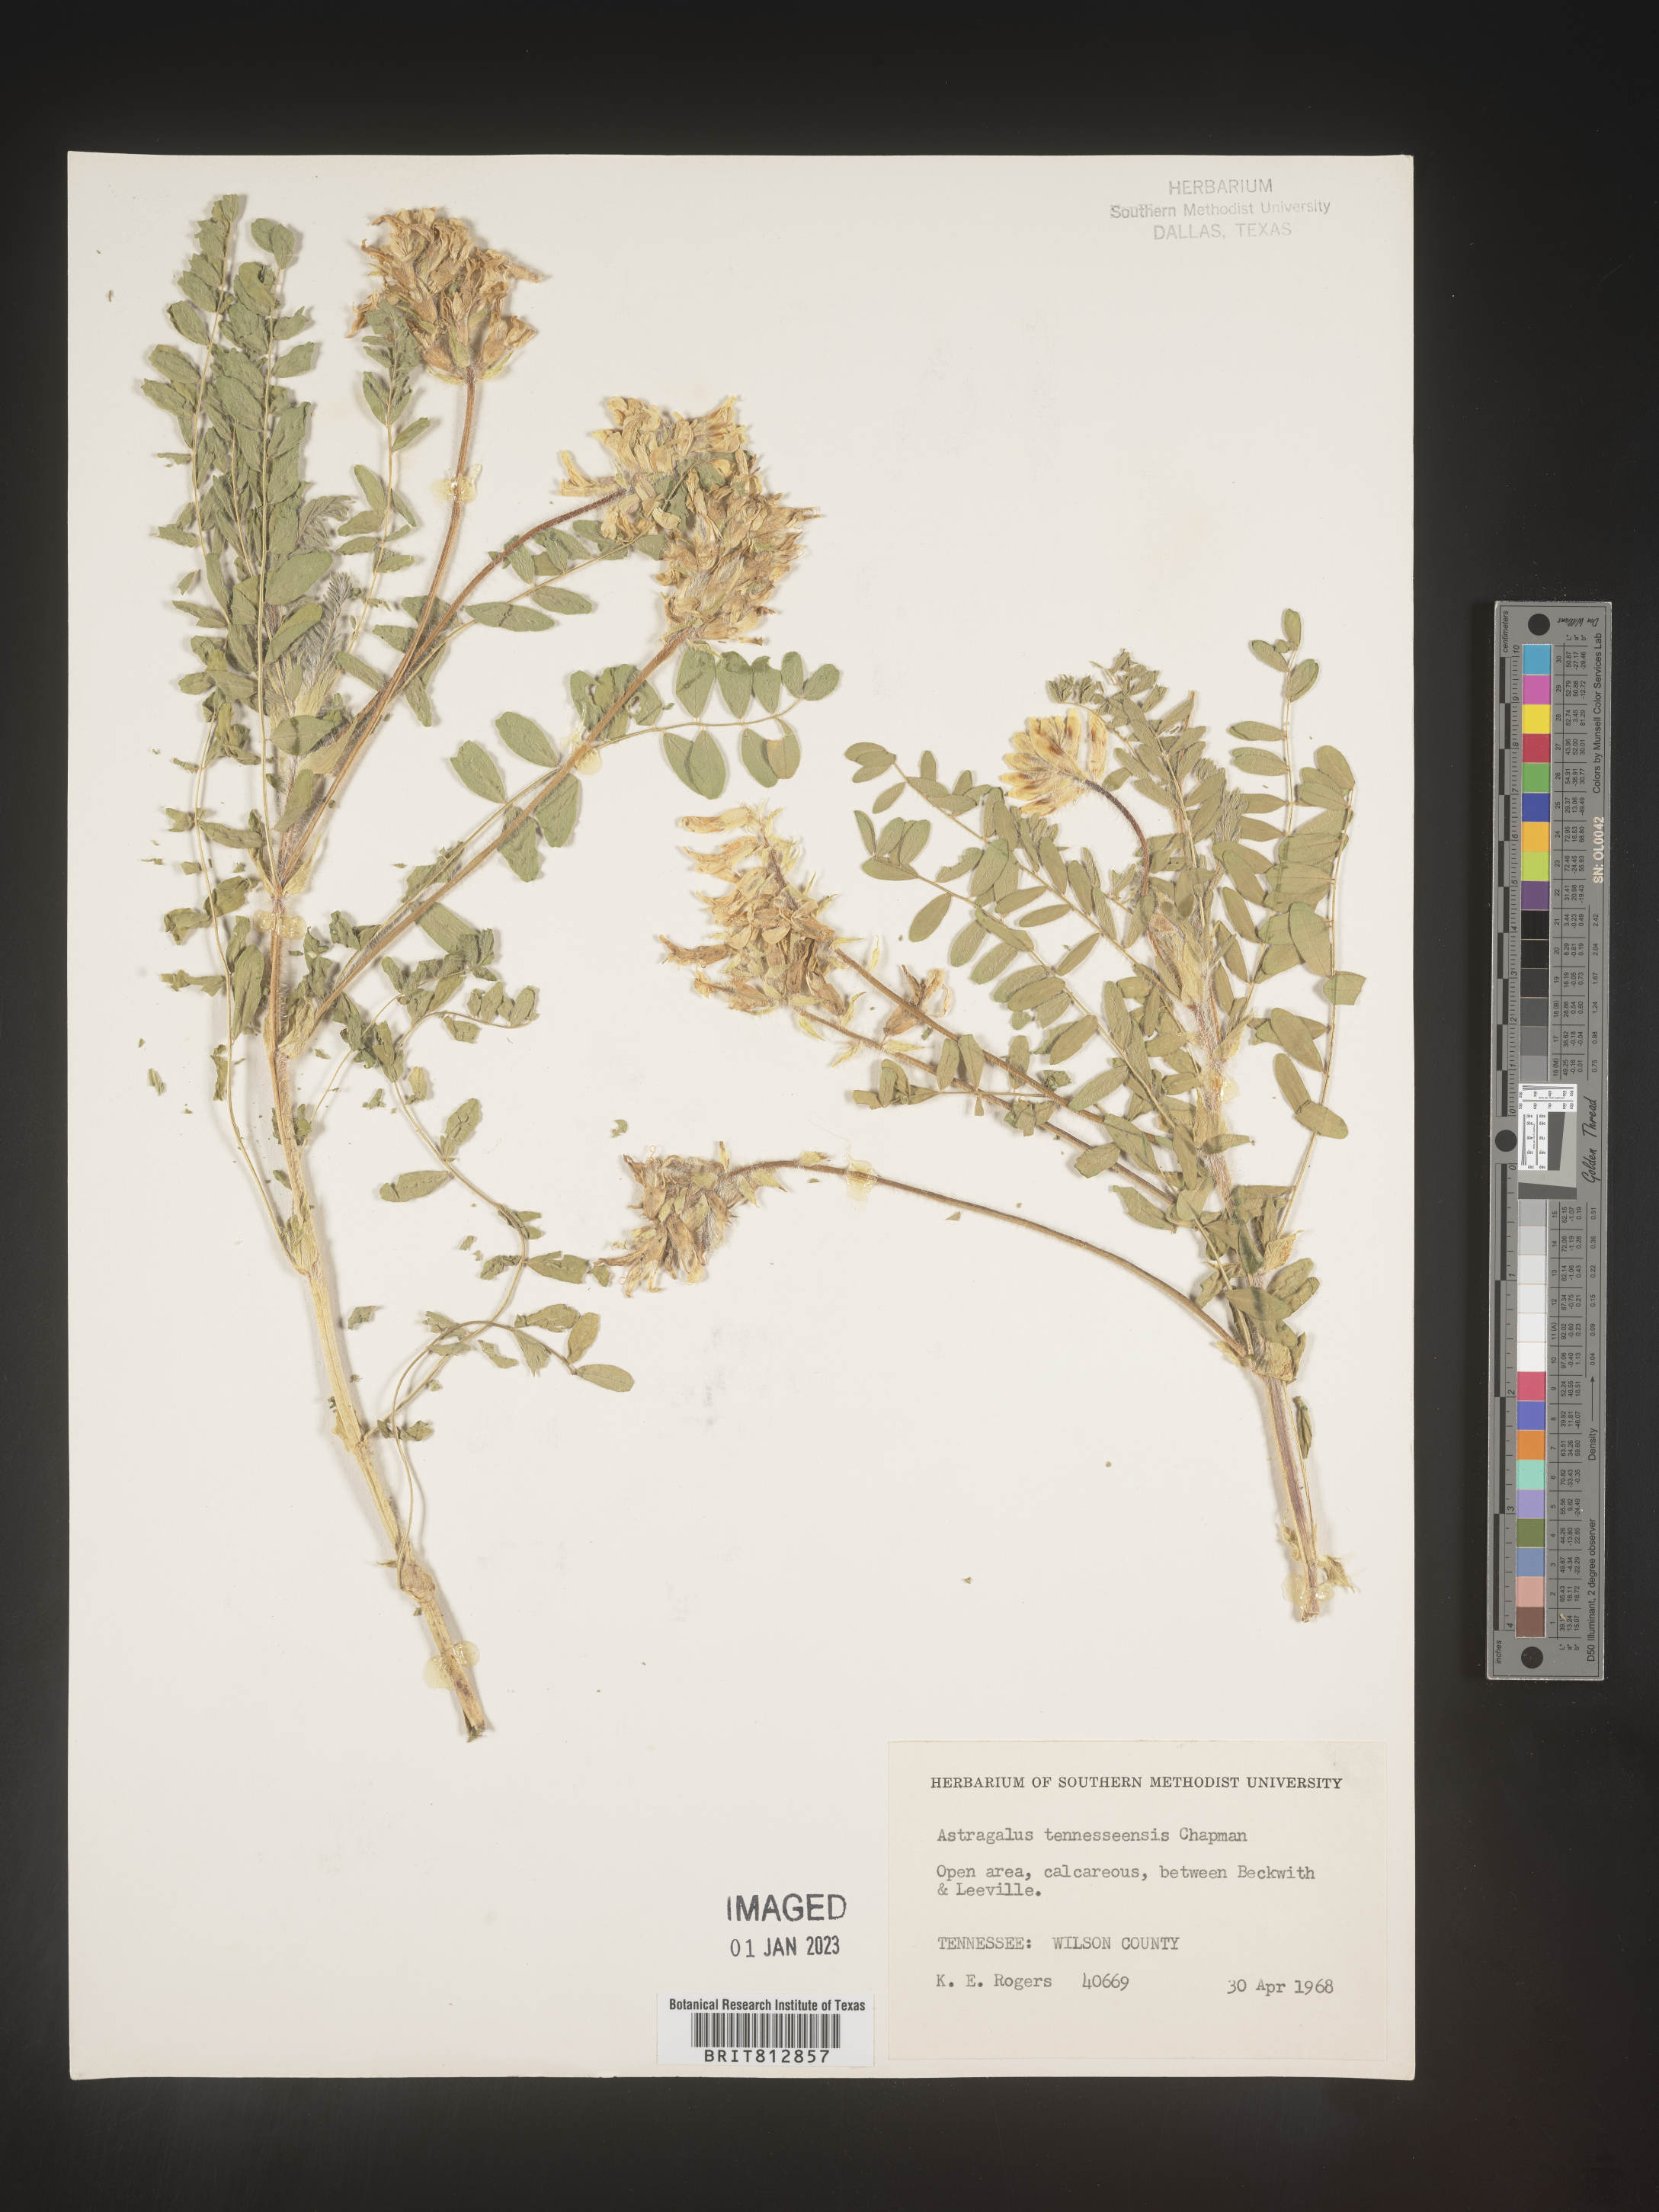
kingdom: Plantae
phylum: Tracheophyta
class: Magnoliopsida
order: Fabales
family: Fabaceae
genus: Astragalus
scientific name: Astragalus
